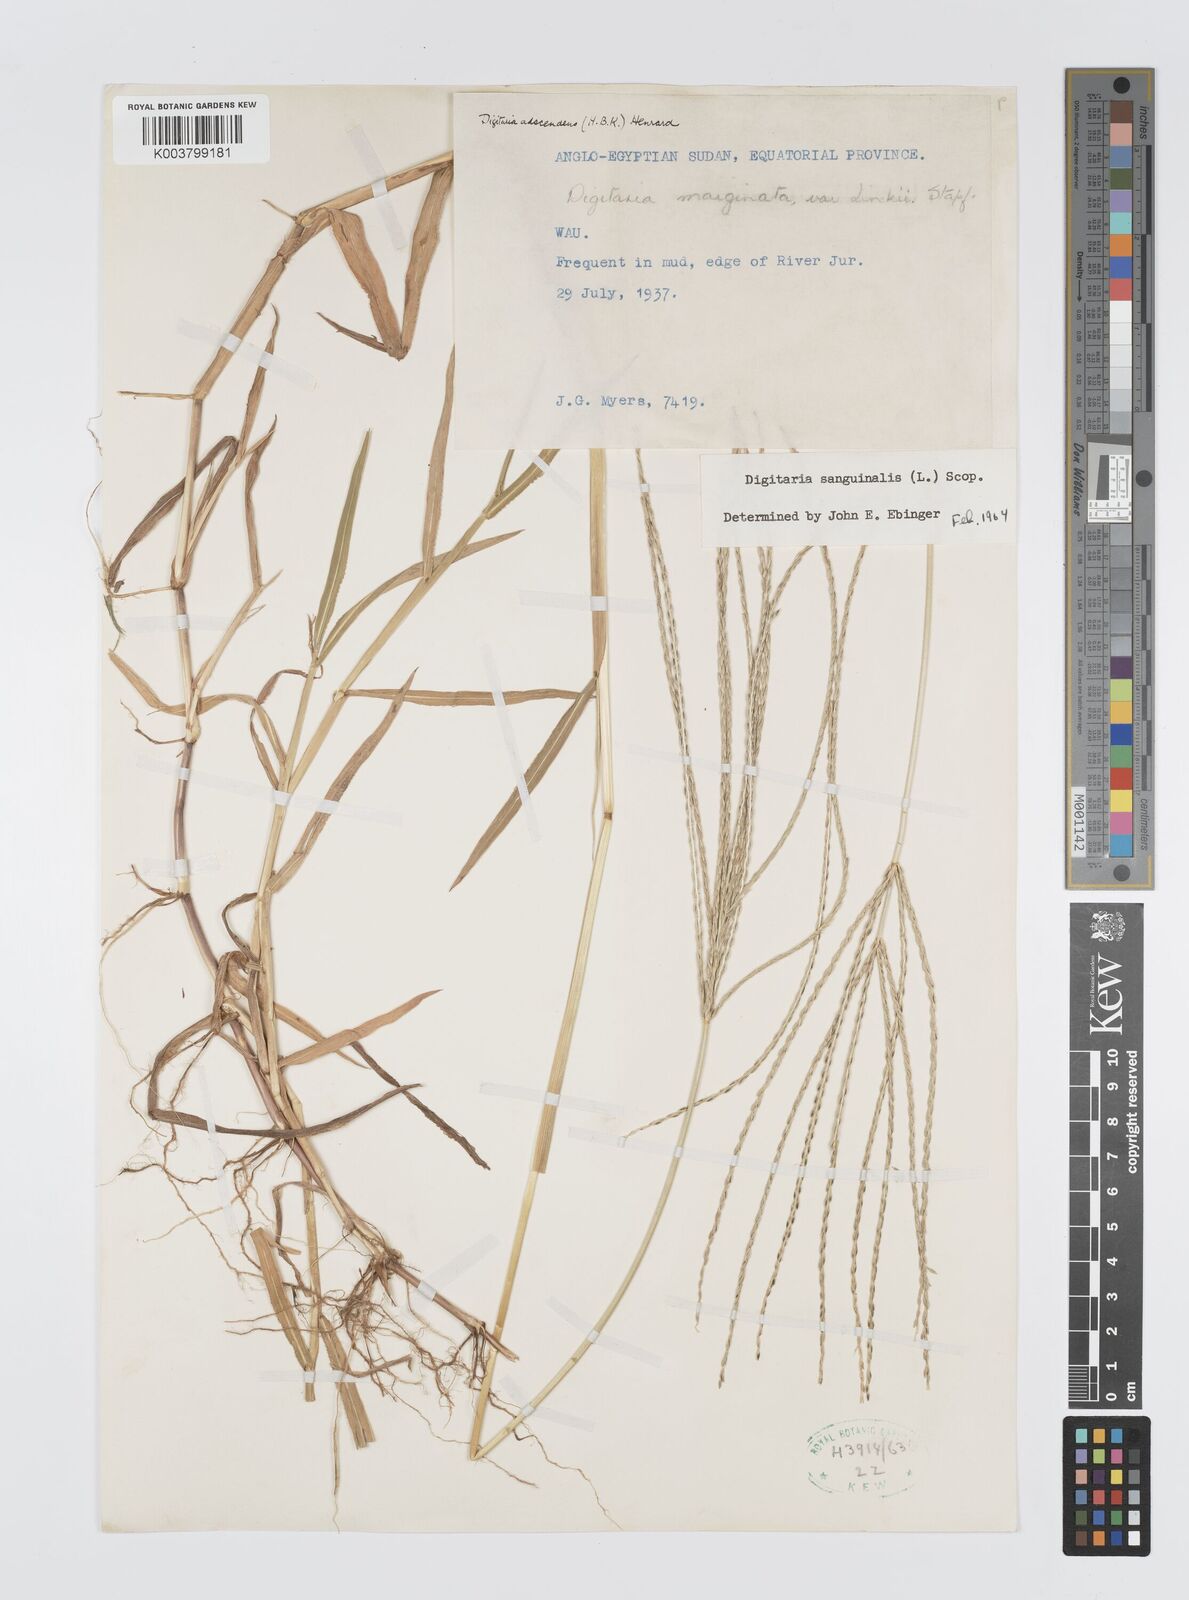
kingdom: Plantae
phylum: Tracheophyta
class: Liliopsida
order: Poales
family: Poaceae
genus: Digitaria
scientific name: Digitaria sanguinalis
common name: Hairy crabgrass
